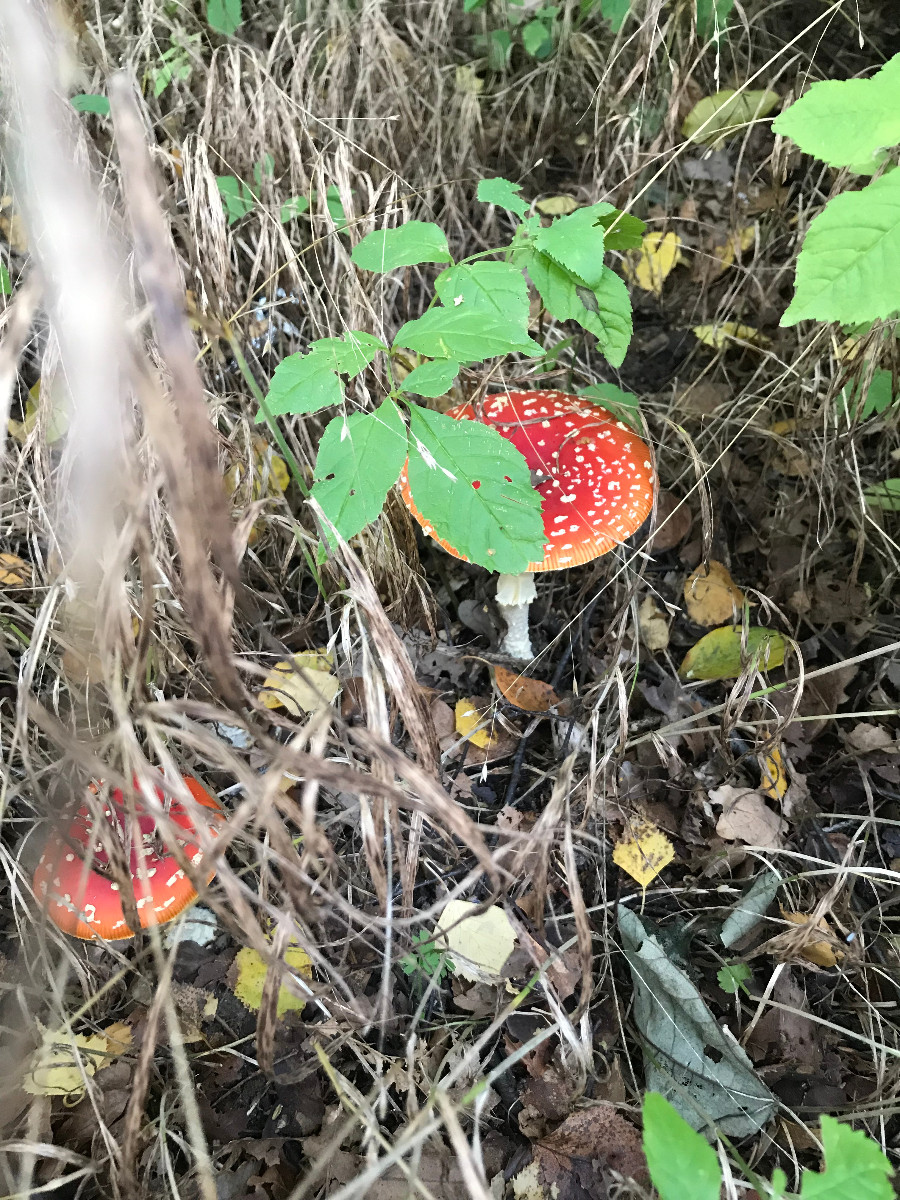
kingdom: Fungi
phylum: Basidiomycota
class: Agaricomycetes
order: Agaricales
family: Amanitaceae
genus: Amanita
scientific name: Amanita muscaria
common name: rød fluesvamp
